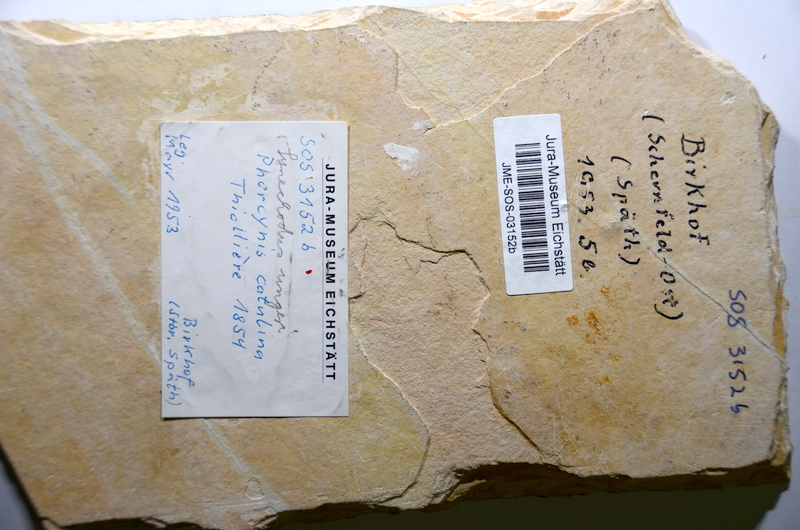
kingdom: Animalia
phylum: Chordata
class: Elasmobranchii
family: Palaeospinacidae
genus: Synechodus
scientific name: Synechodus ungeri
